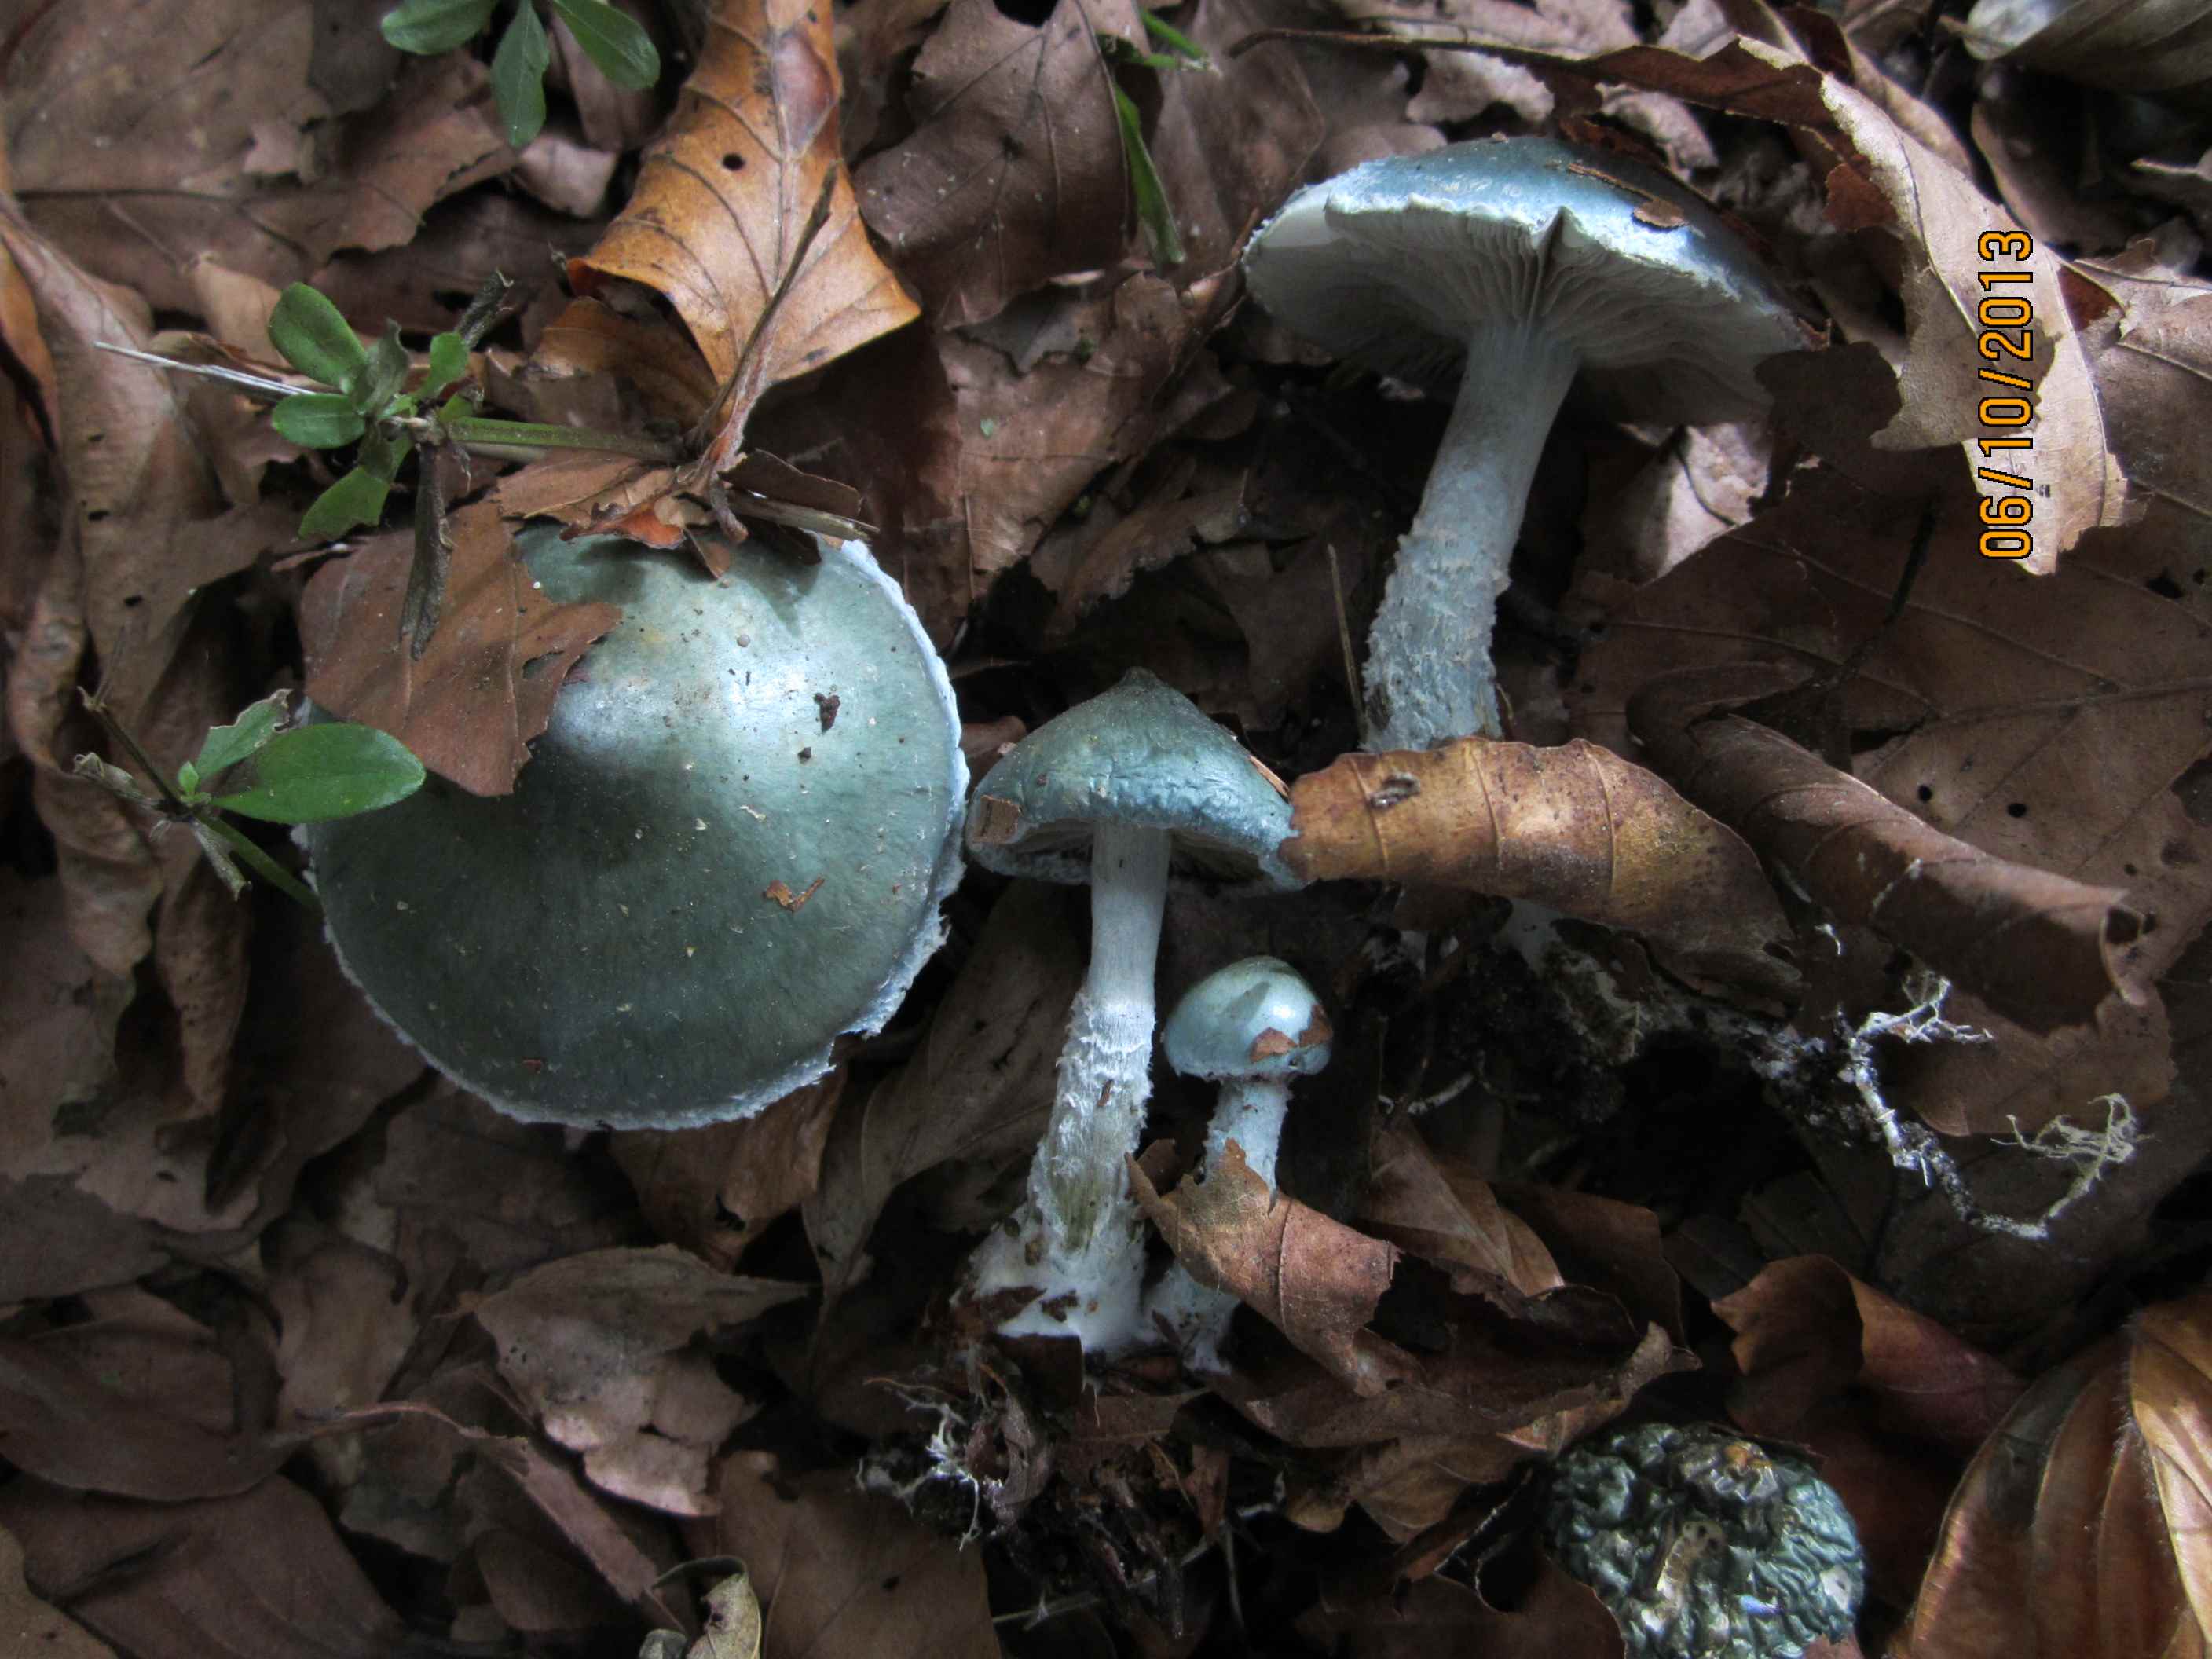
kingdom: Fungi
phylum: Basidiomycota
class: Agaricomycetes
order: Agaricales
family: Strophariaceae
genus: Stropharia
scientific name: Stropharia cyanea
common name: blågrøn bredblad
